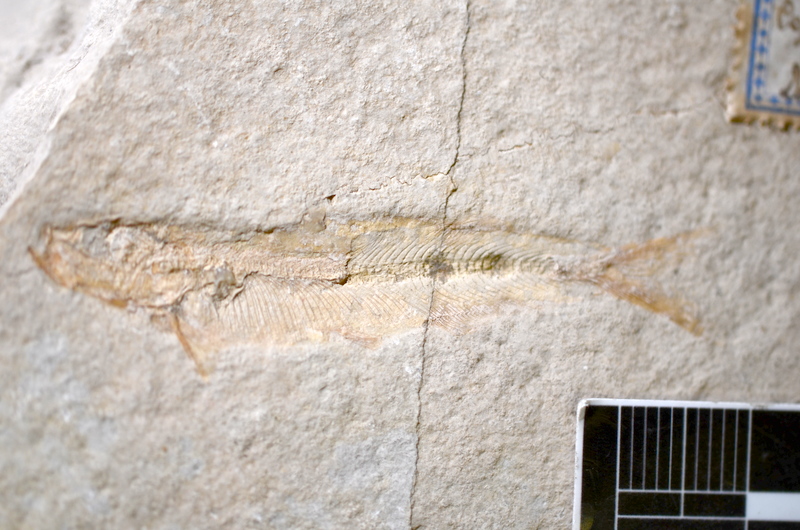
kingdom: Animalia
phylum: Chordata
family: Allothrissopidae
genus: Allothrissops
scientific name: Allothrissops mesogaster
